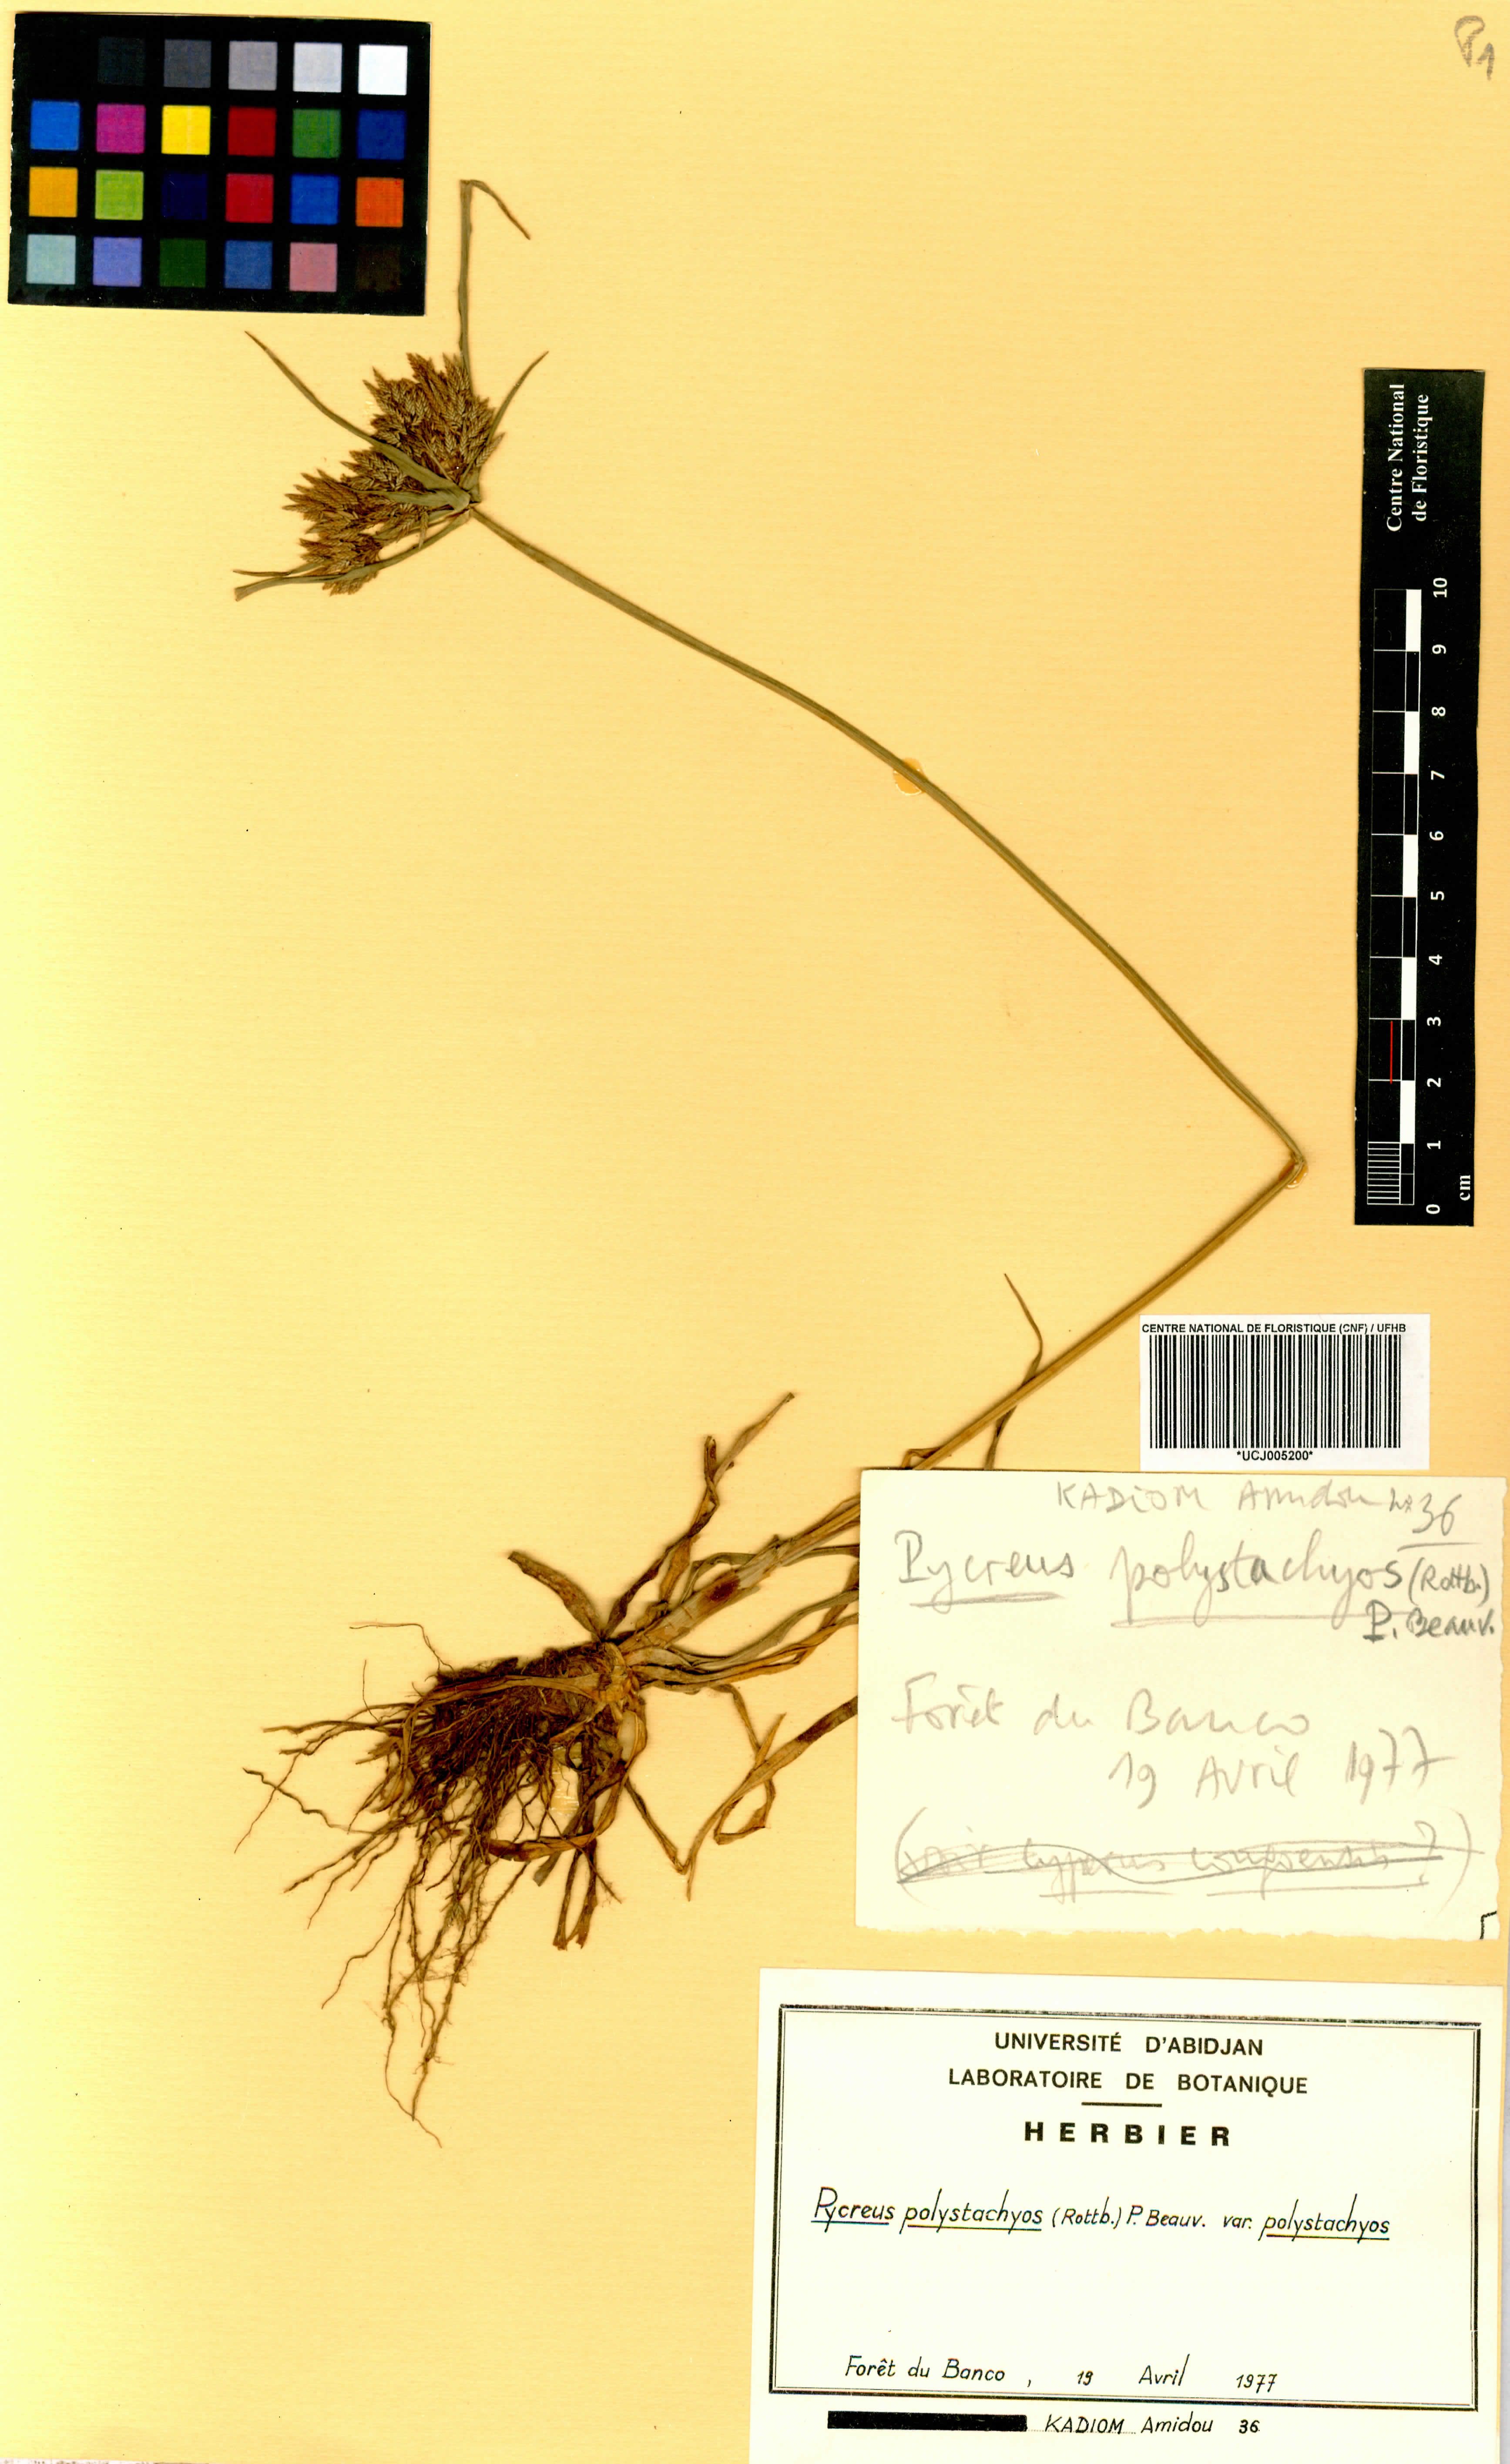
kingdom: Plantae
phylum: Tracheophyta
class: Liliopsida
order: Poales
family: Cyperaceae
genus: Cyperus
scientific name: Cyperus polystachyos
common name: Bunchy flat sedge
